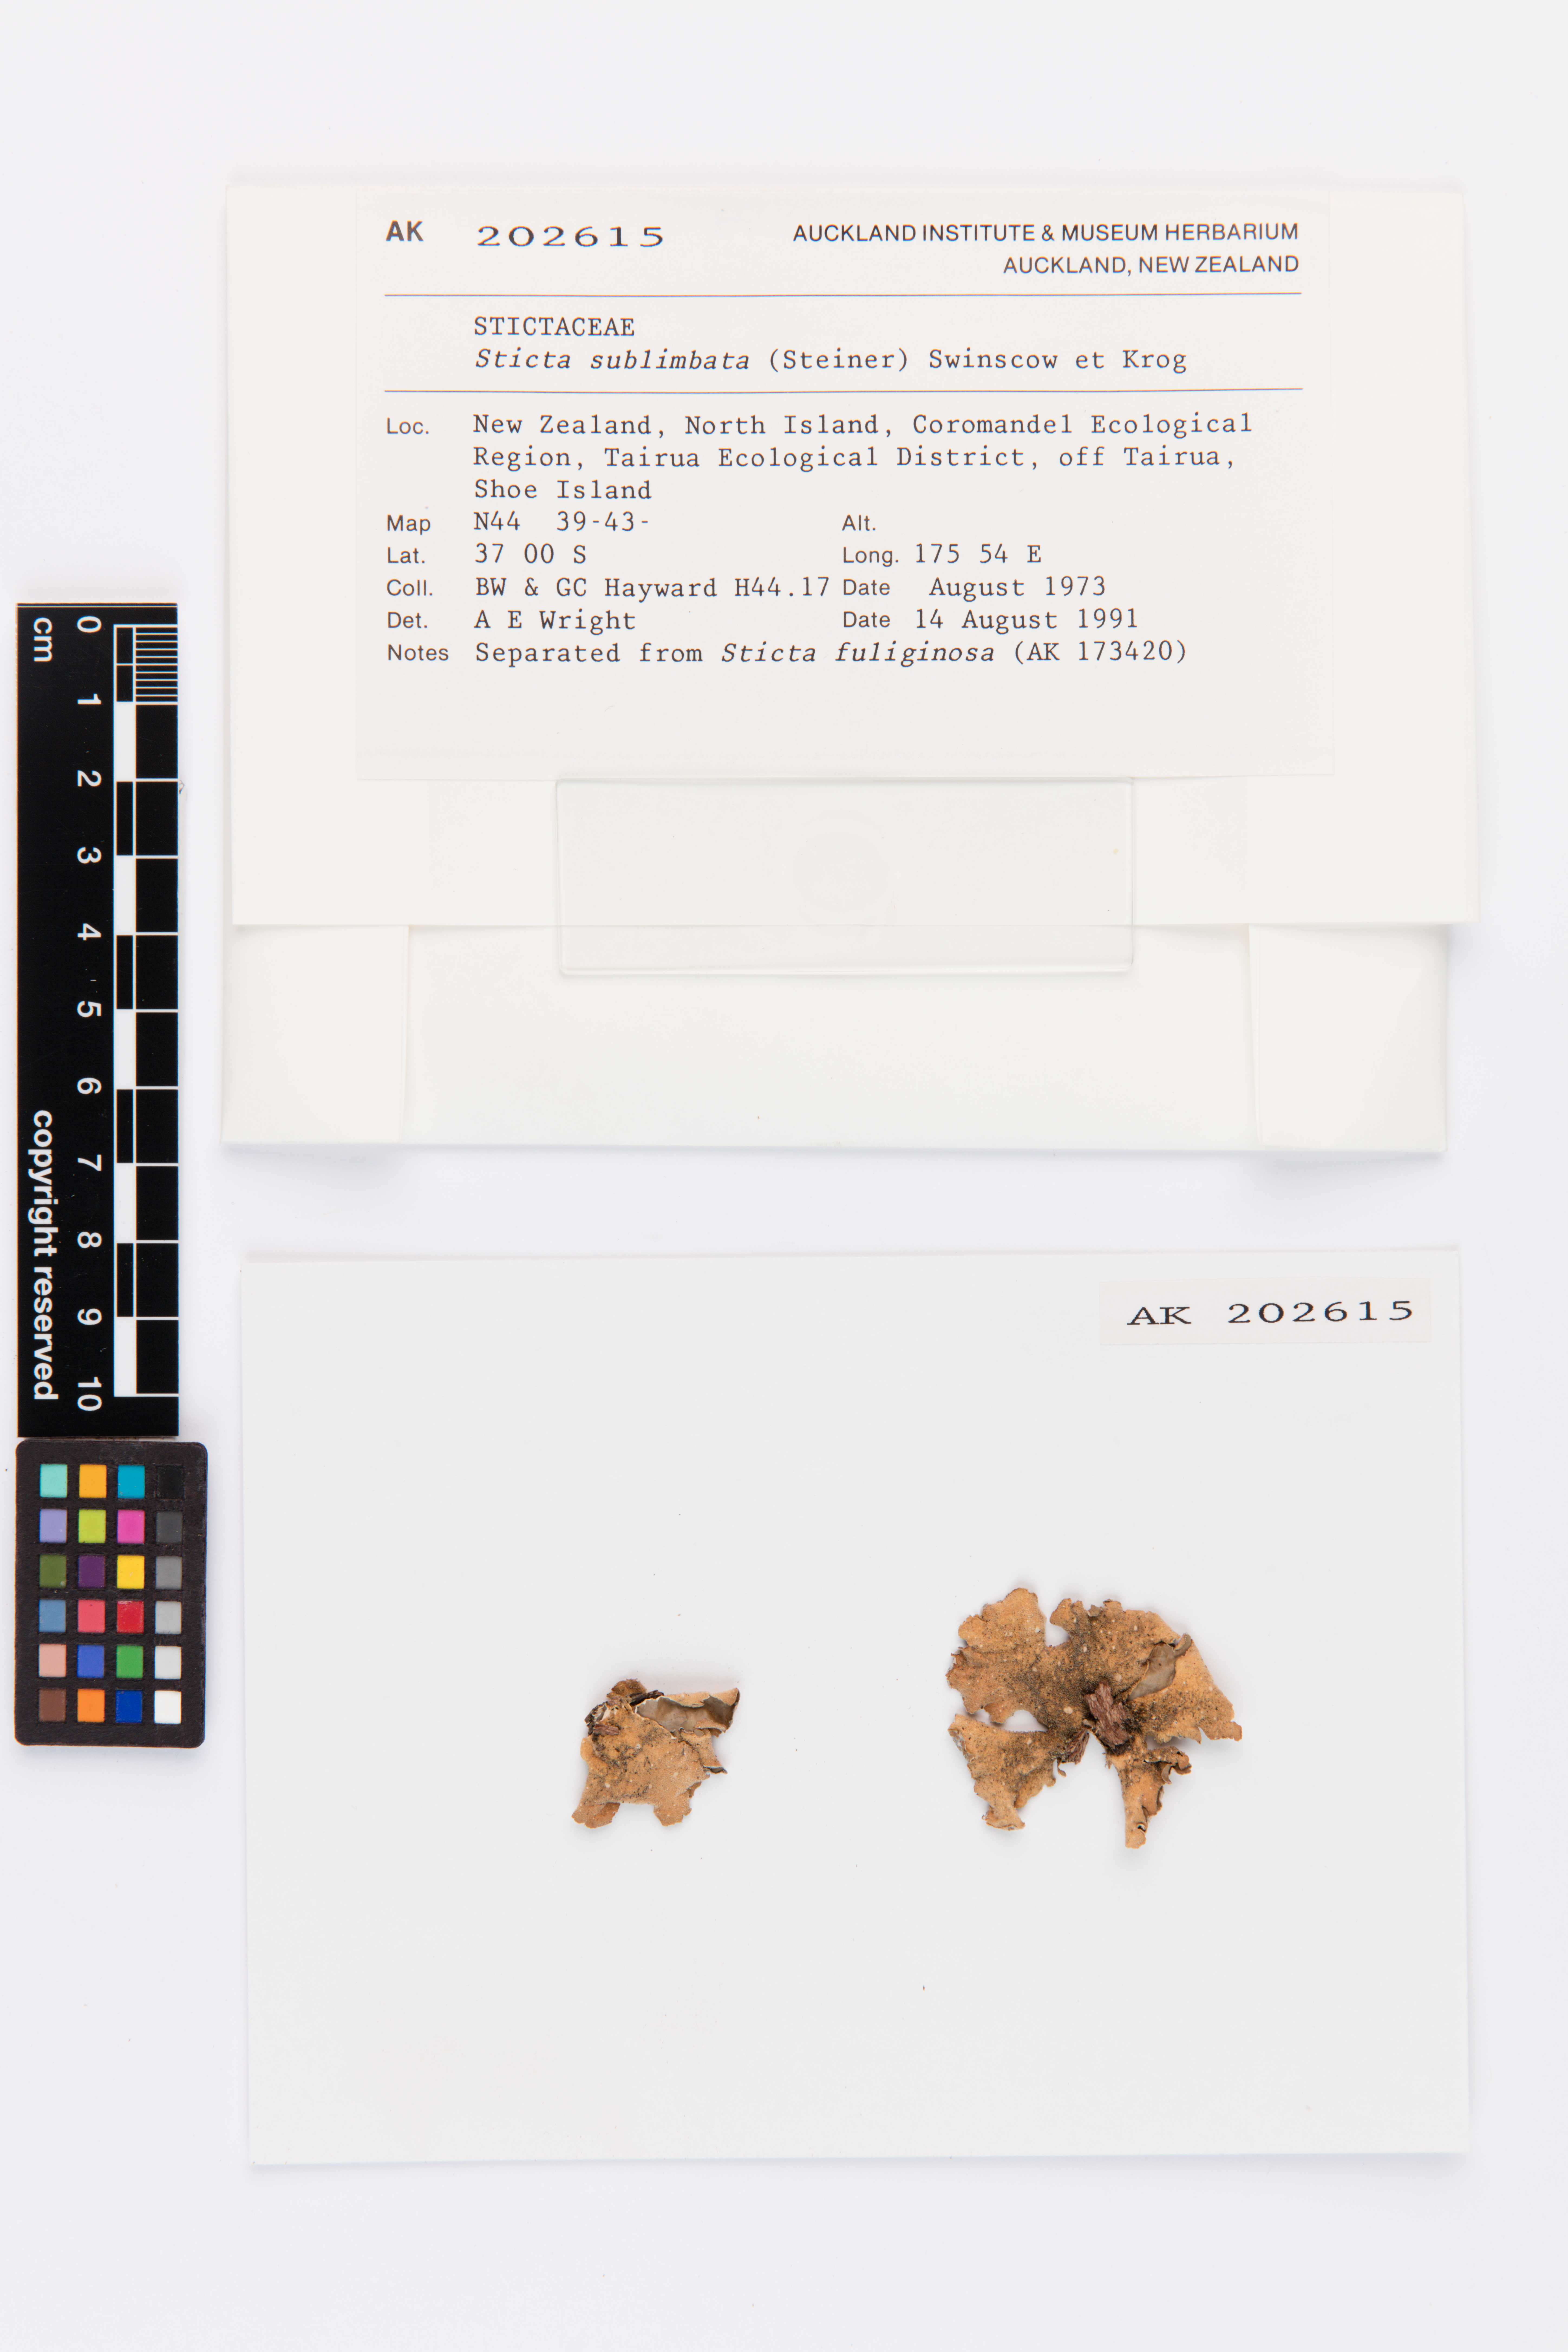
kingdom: Fungi
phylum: Ascomycota
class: Lecanoromycetes
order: Peltigerales
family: Lobariaceae
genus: Sticta
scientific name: Sticta sublimbata
